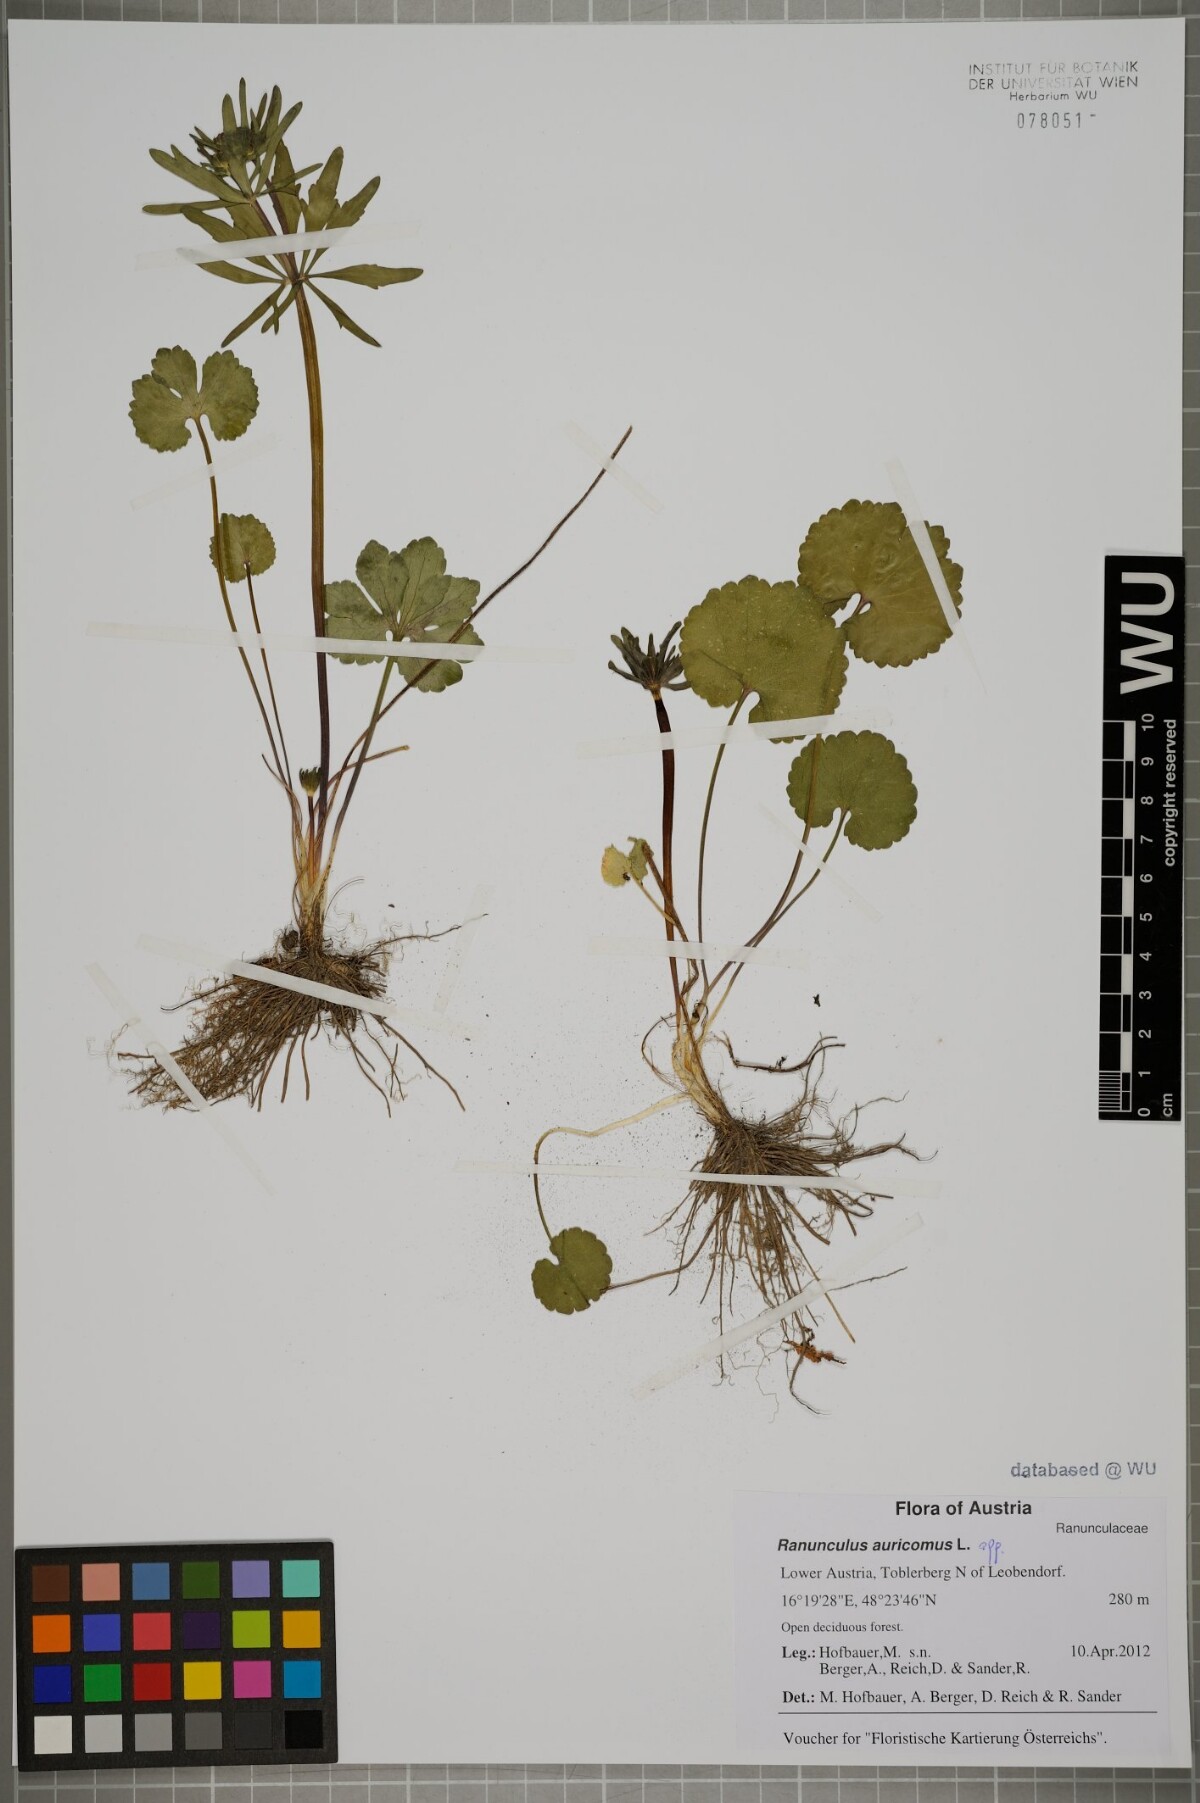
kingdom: Plantae
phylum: Tracheophyta
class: Magnoliopsida
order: Ranunculales
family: Ranunculaceae
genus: Ranunculus
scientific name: Ranunculus auricomus
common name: Goldilocks buttercup
